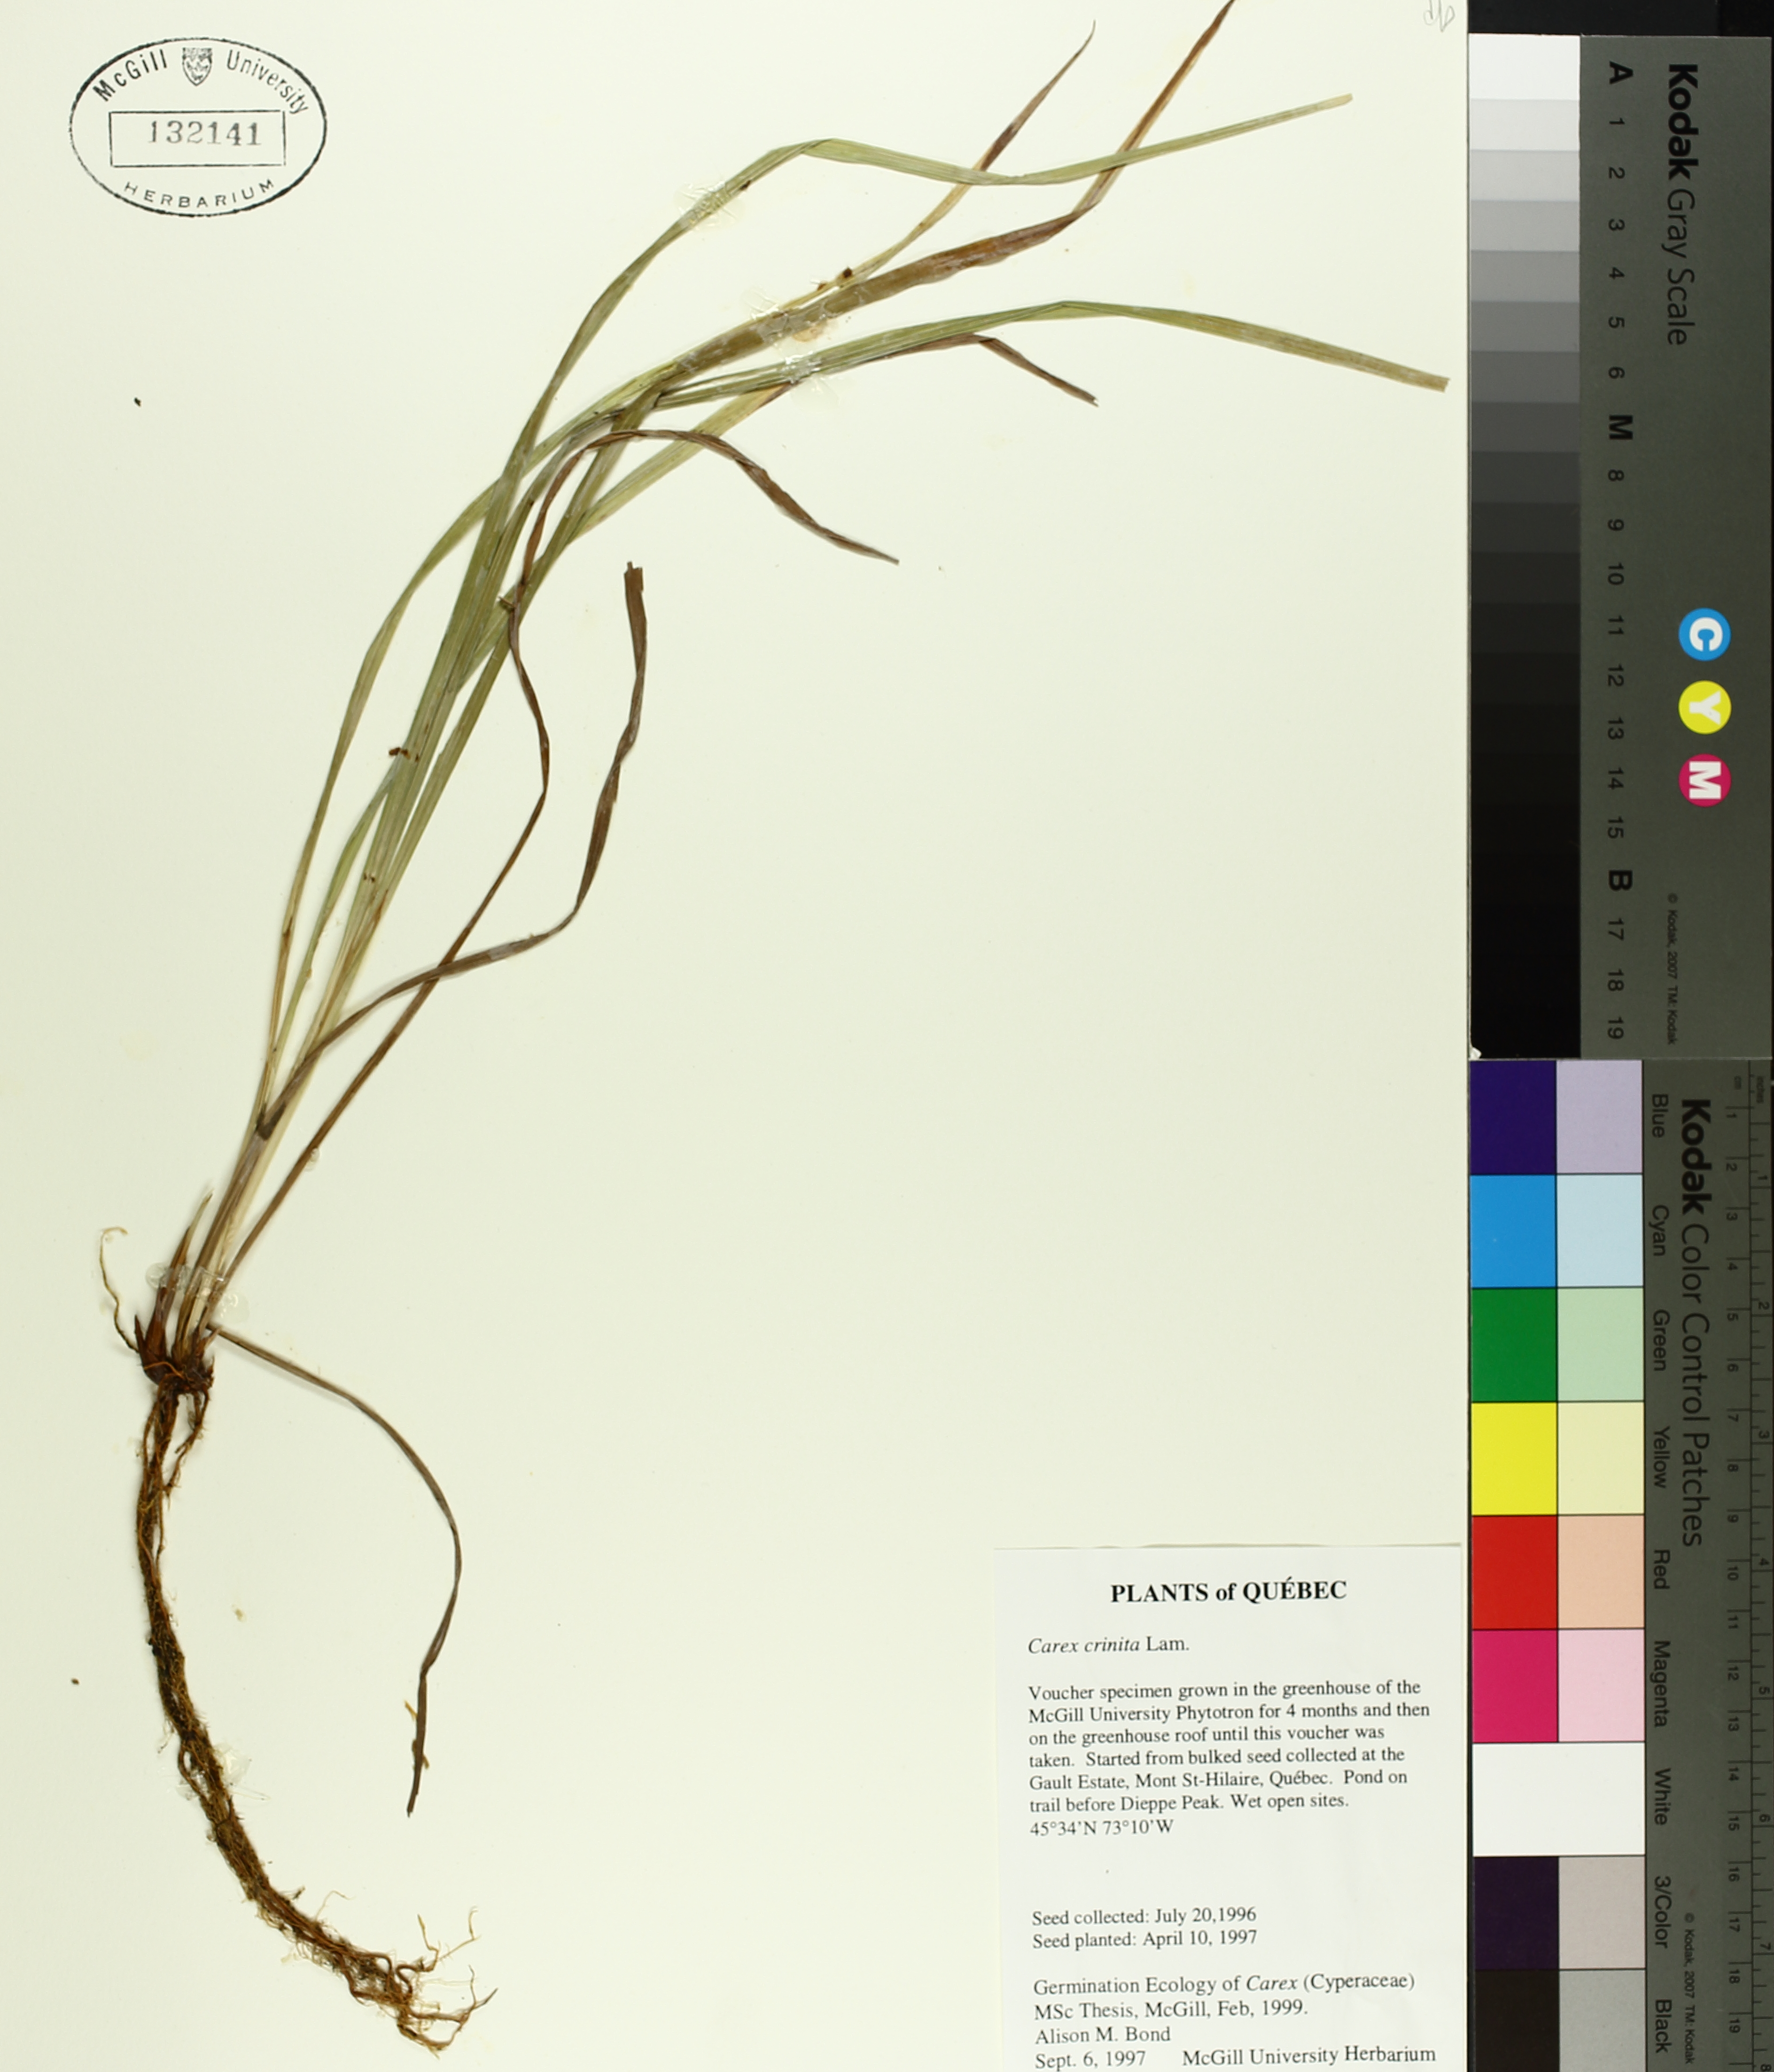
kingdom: Plantae
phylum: Tracheophyta
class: Liliopsida
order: Poales
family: Cyperaceae
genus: Carex
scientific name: Carex crinita
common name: Fringed sedge
